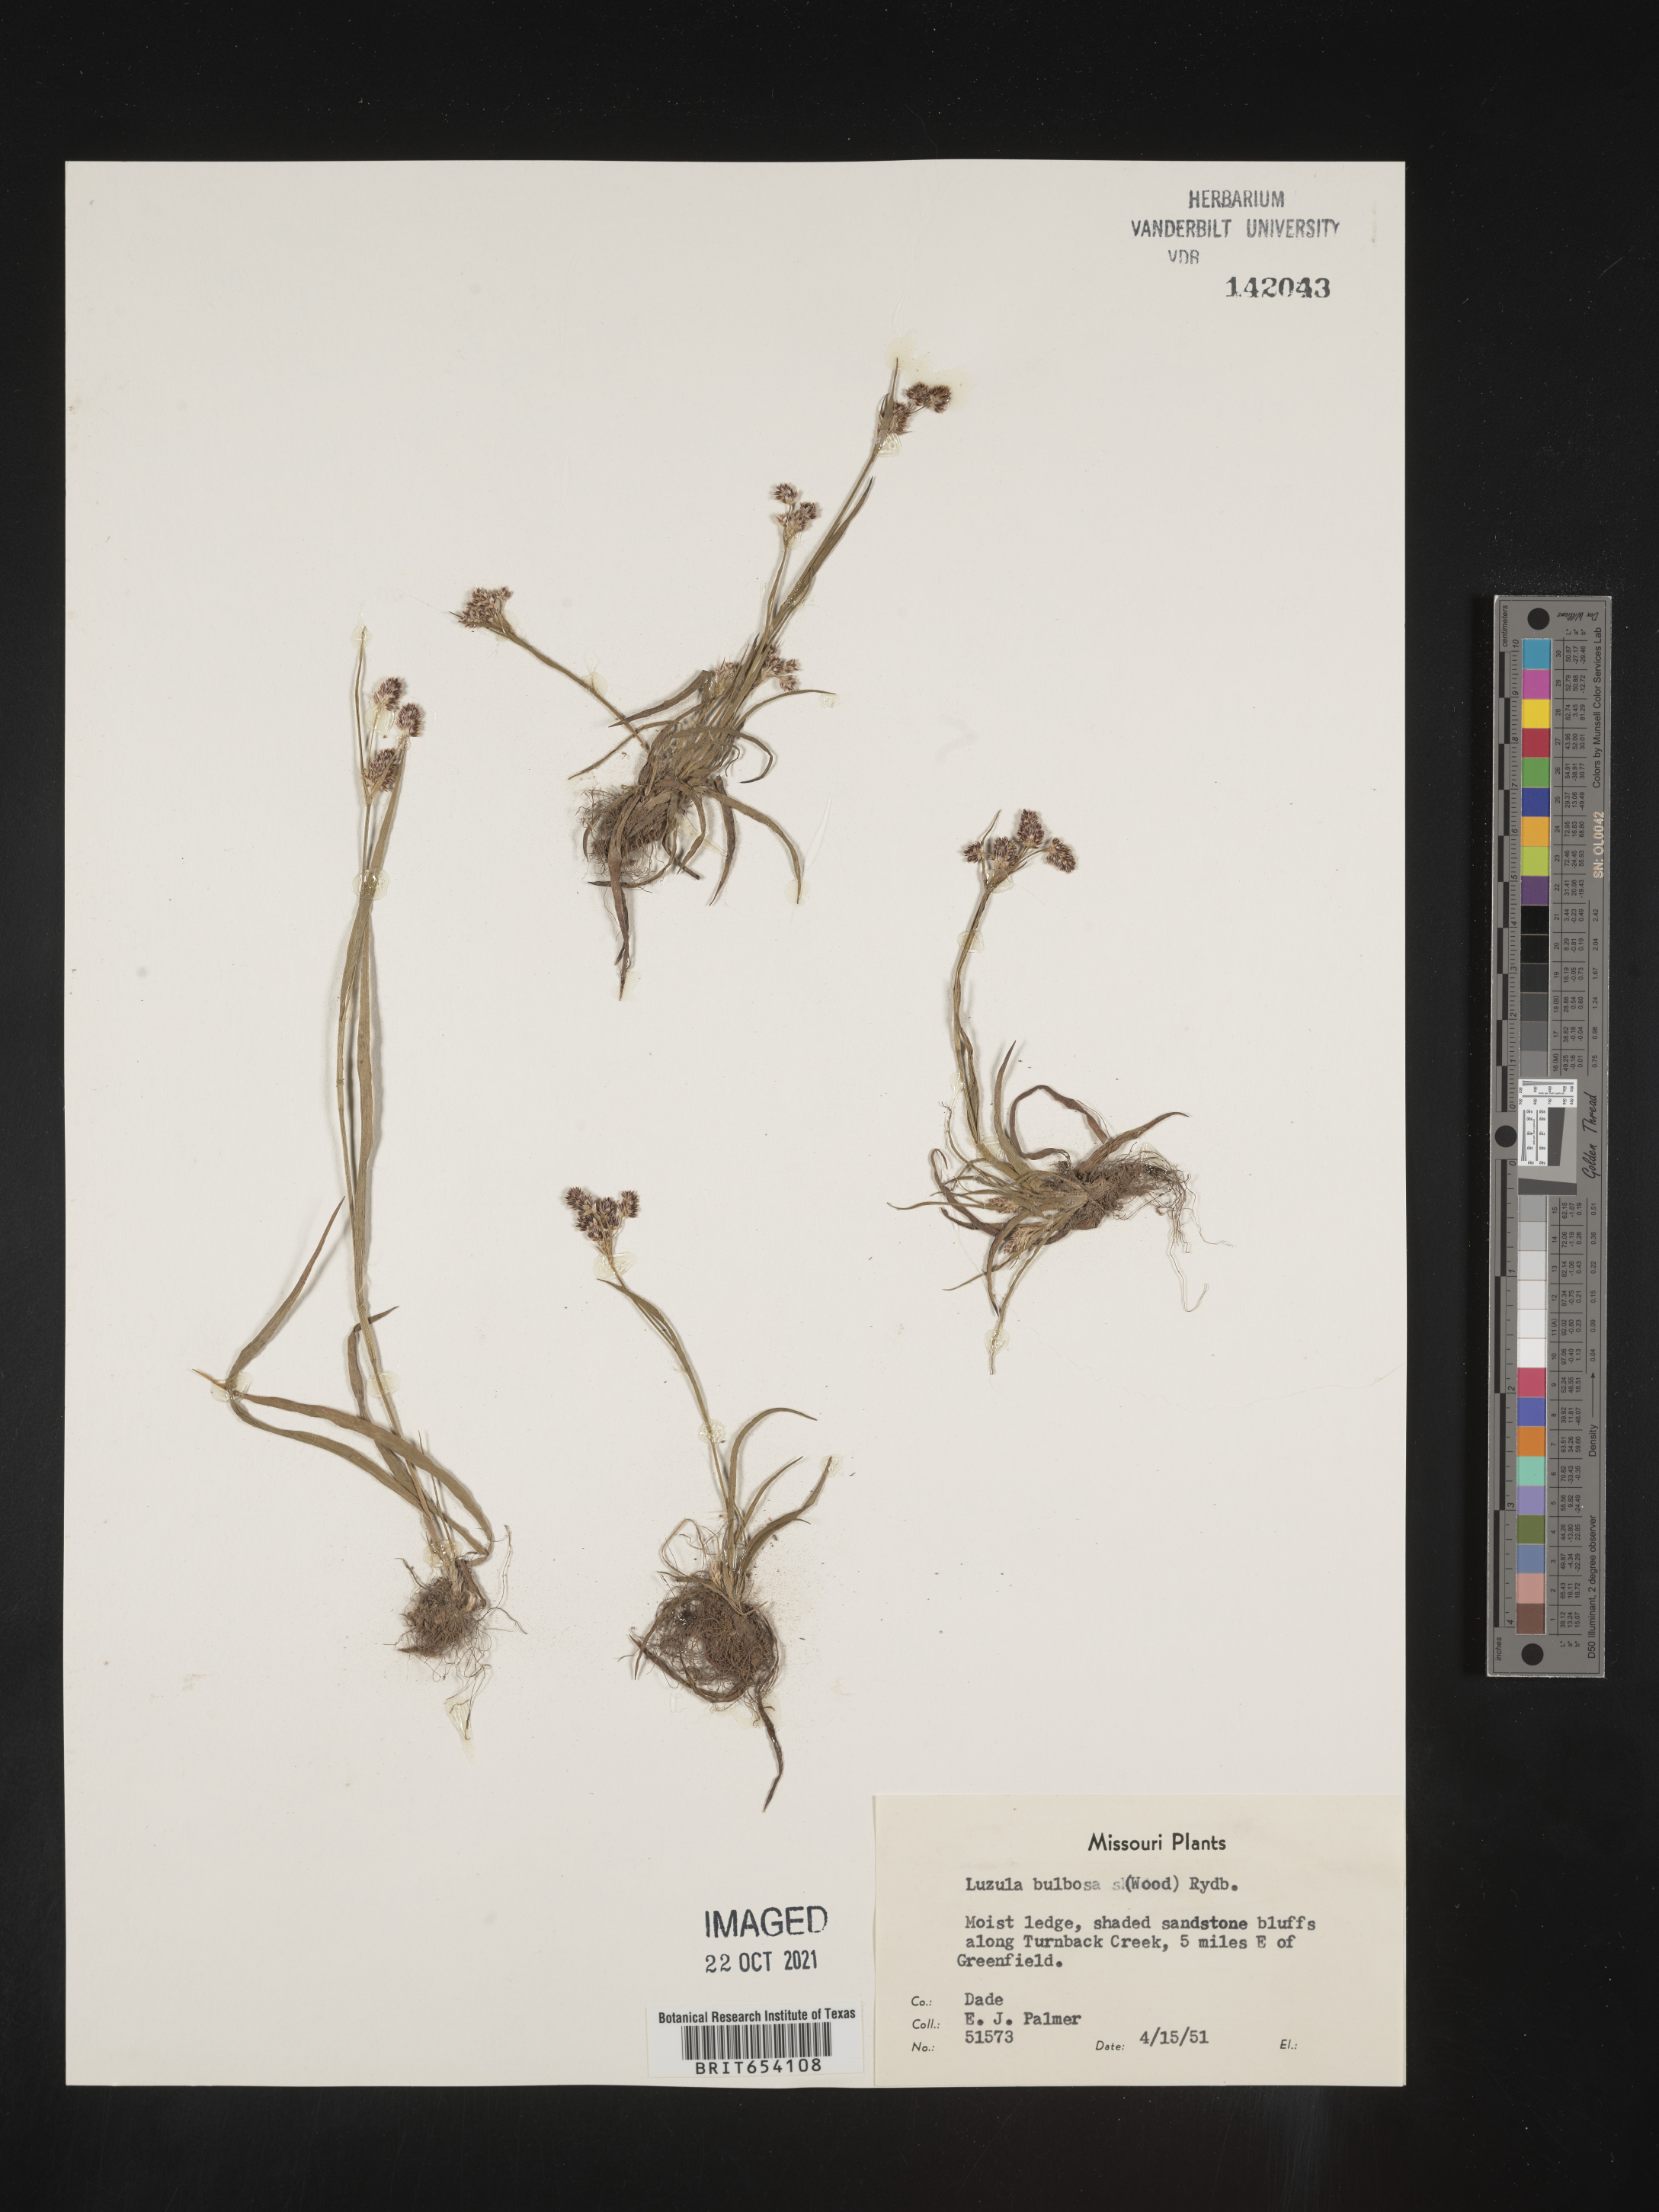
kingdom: Plantae
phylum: Tracheophyta
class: Liliopsida
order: Poales
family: Juncaceae
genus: Luzula
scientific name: Luzula bulbosa
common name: Bulbous woodrush
